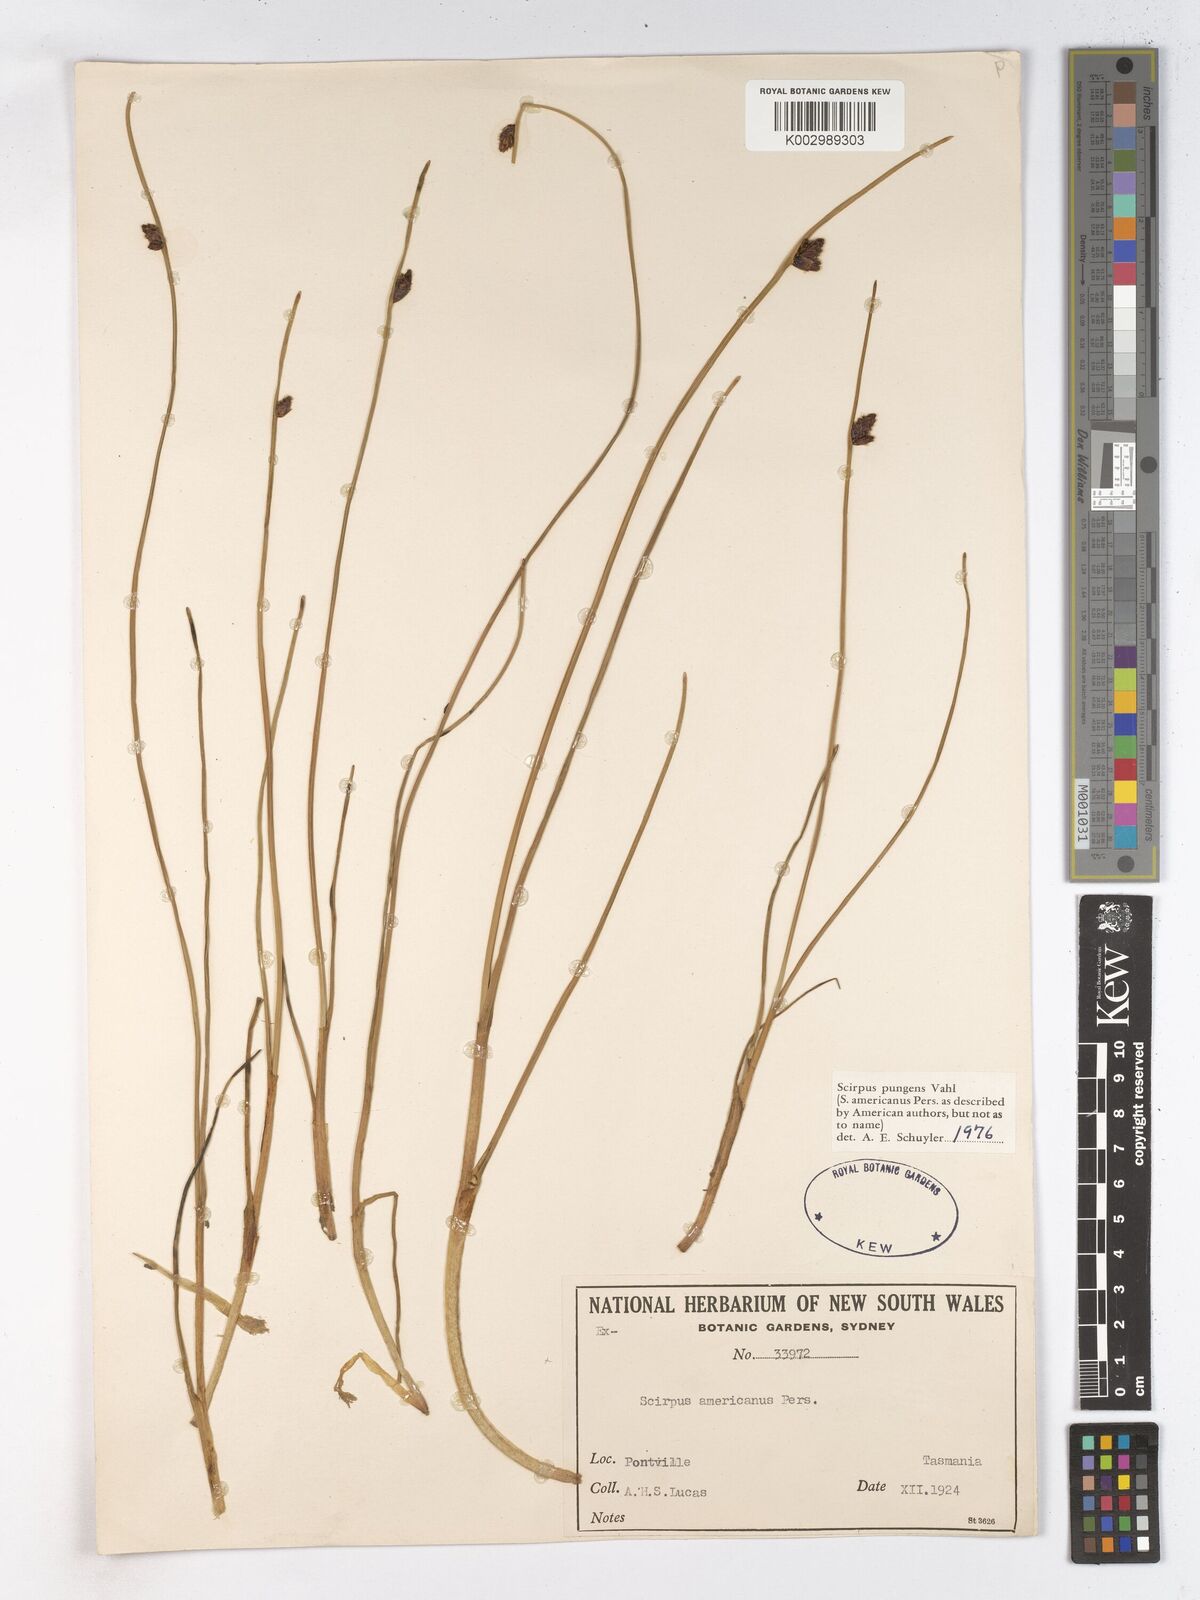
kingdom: Plantae
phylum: Tracheophyta
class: Liliopsida
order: Poales
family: Cyperaceae
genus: Schoenoplectus
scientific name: Schoenoplectus pungens
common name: Sharp club-rush
